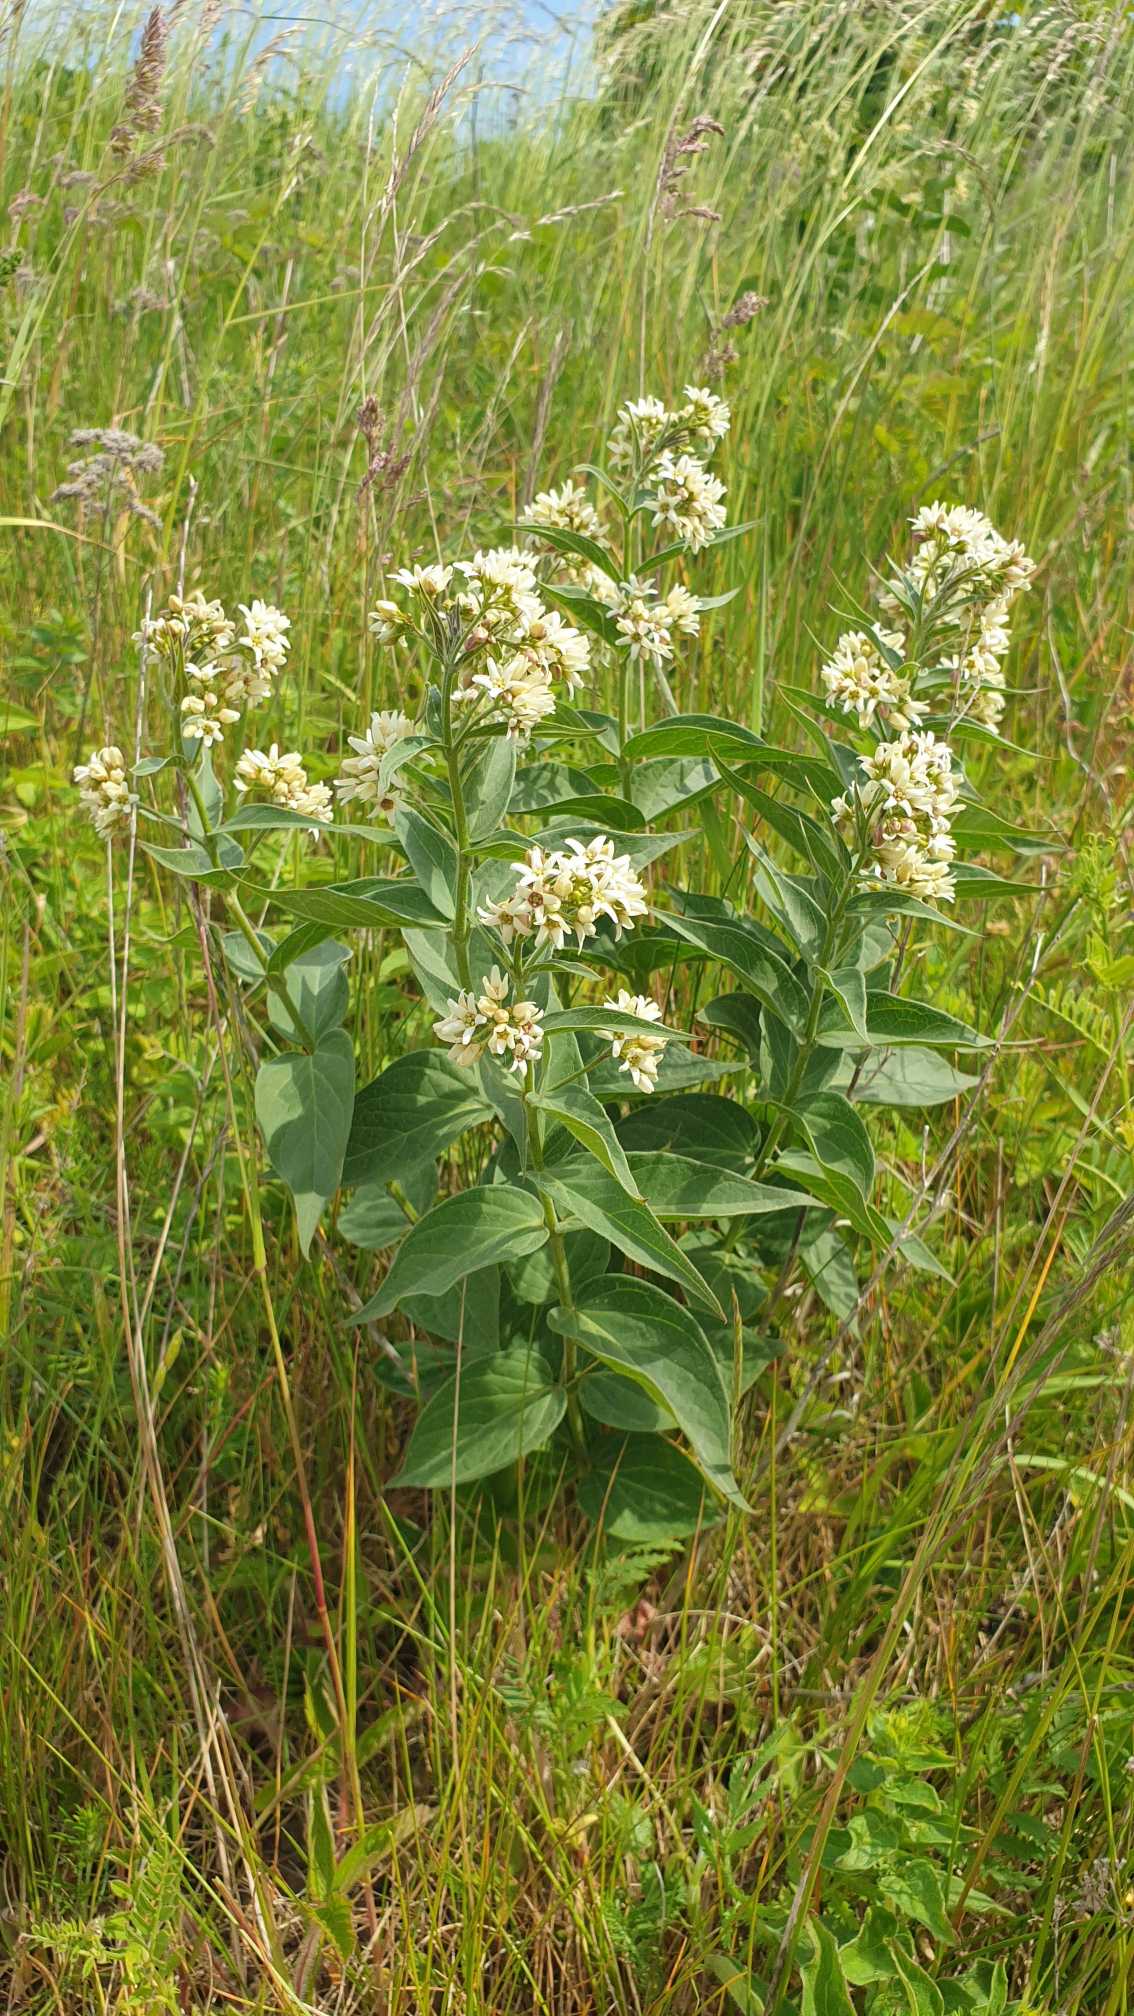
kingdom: Plantae
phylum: Tracheophyta
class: Magnoliopsida
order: Gentianales
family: Apocynaceae
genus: Vincetoxicum
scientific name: Vincetoxicum hirundinaria
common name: Svalerod
